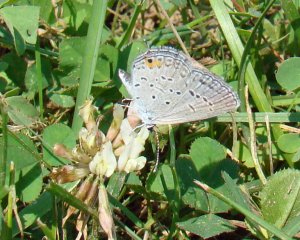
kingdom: Animalia
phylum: Arthropoda
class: Insecta
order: Lepidoptera
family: Lycaenidae
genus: Elkalyce
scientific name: Elkalyce comyntas
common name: Eastern Tailed-Blue
